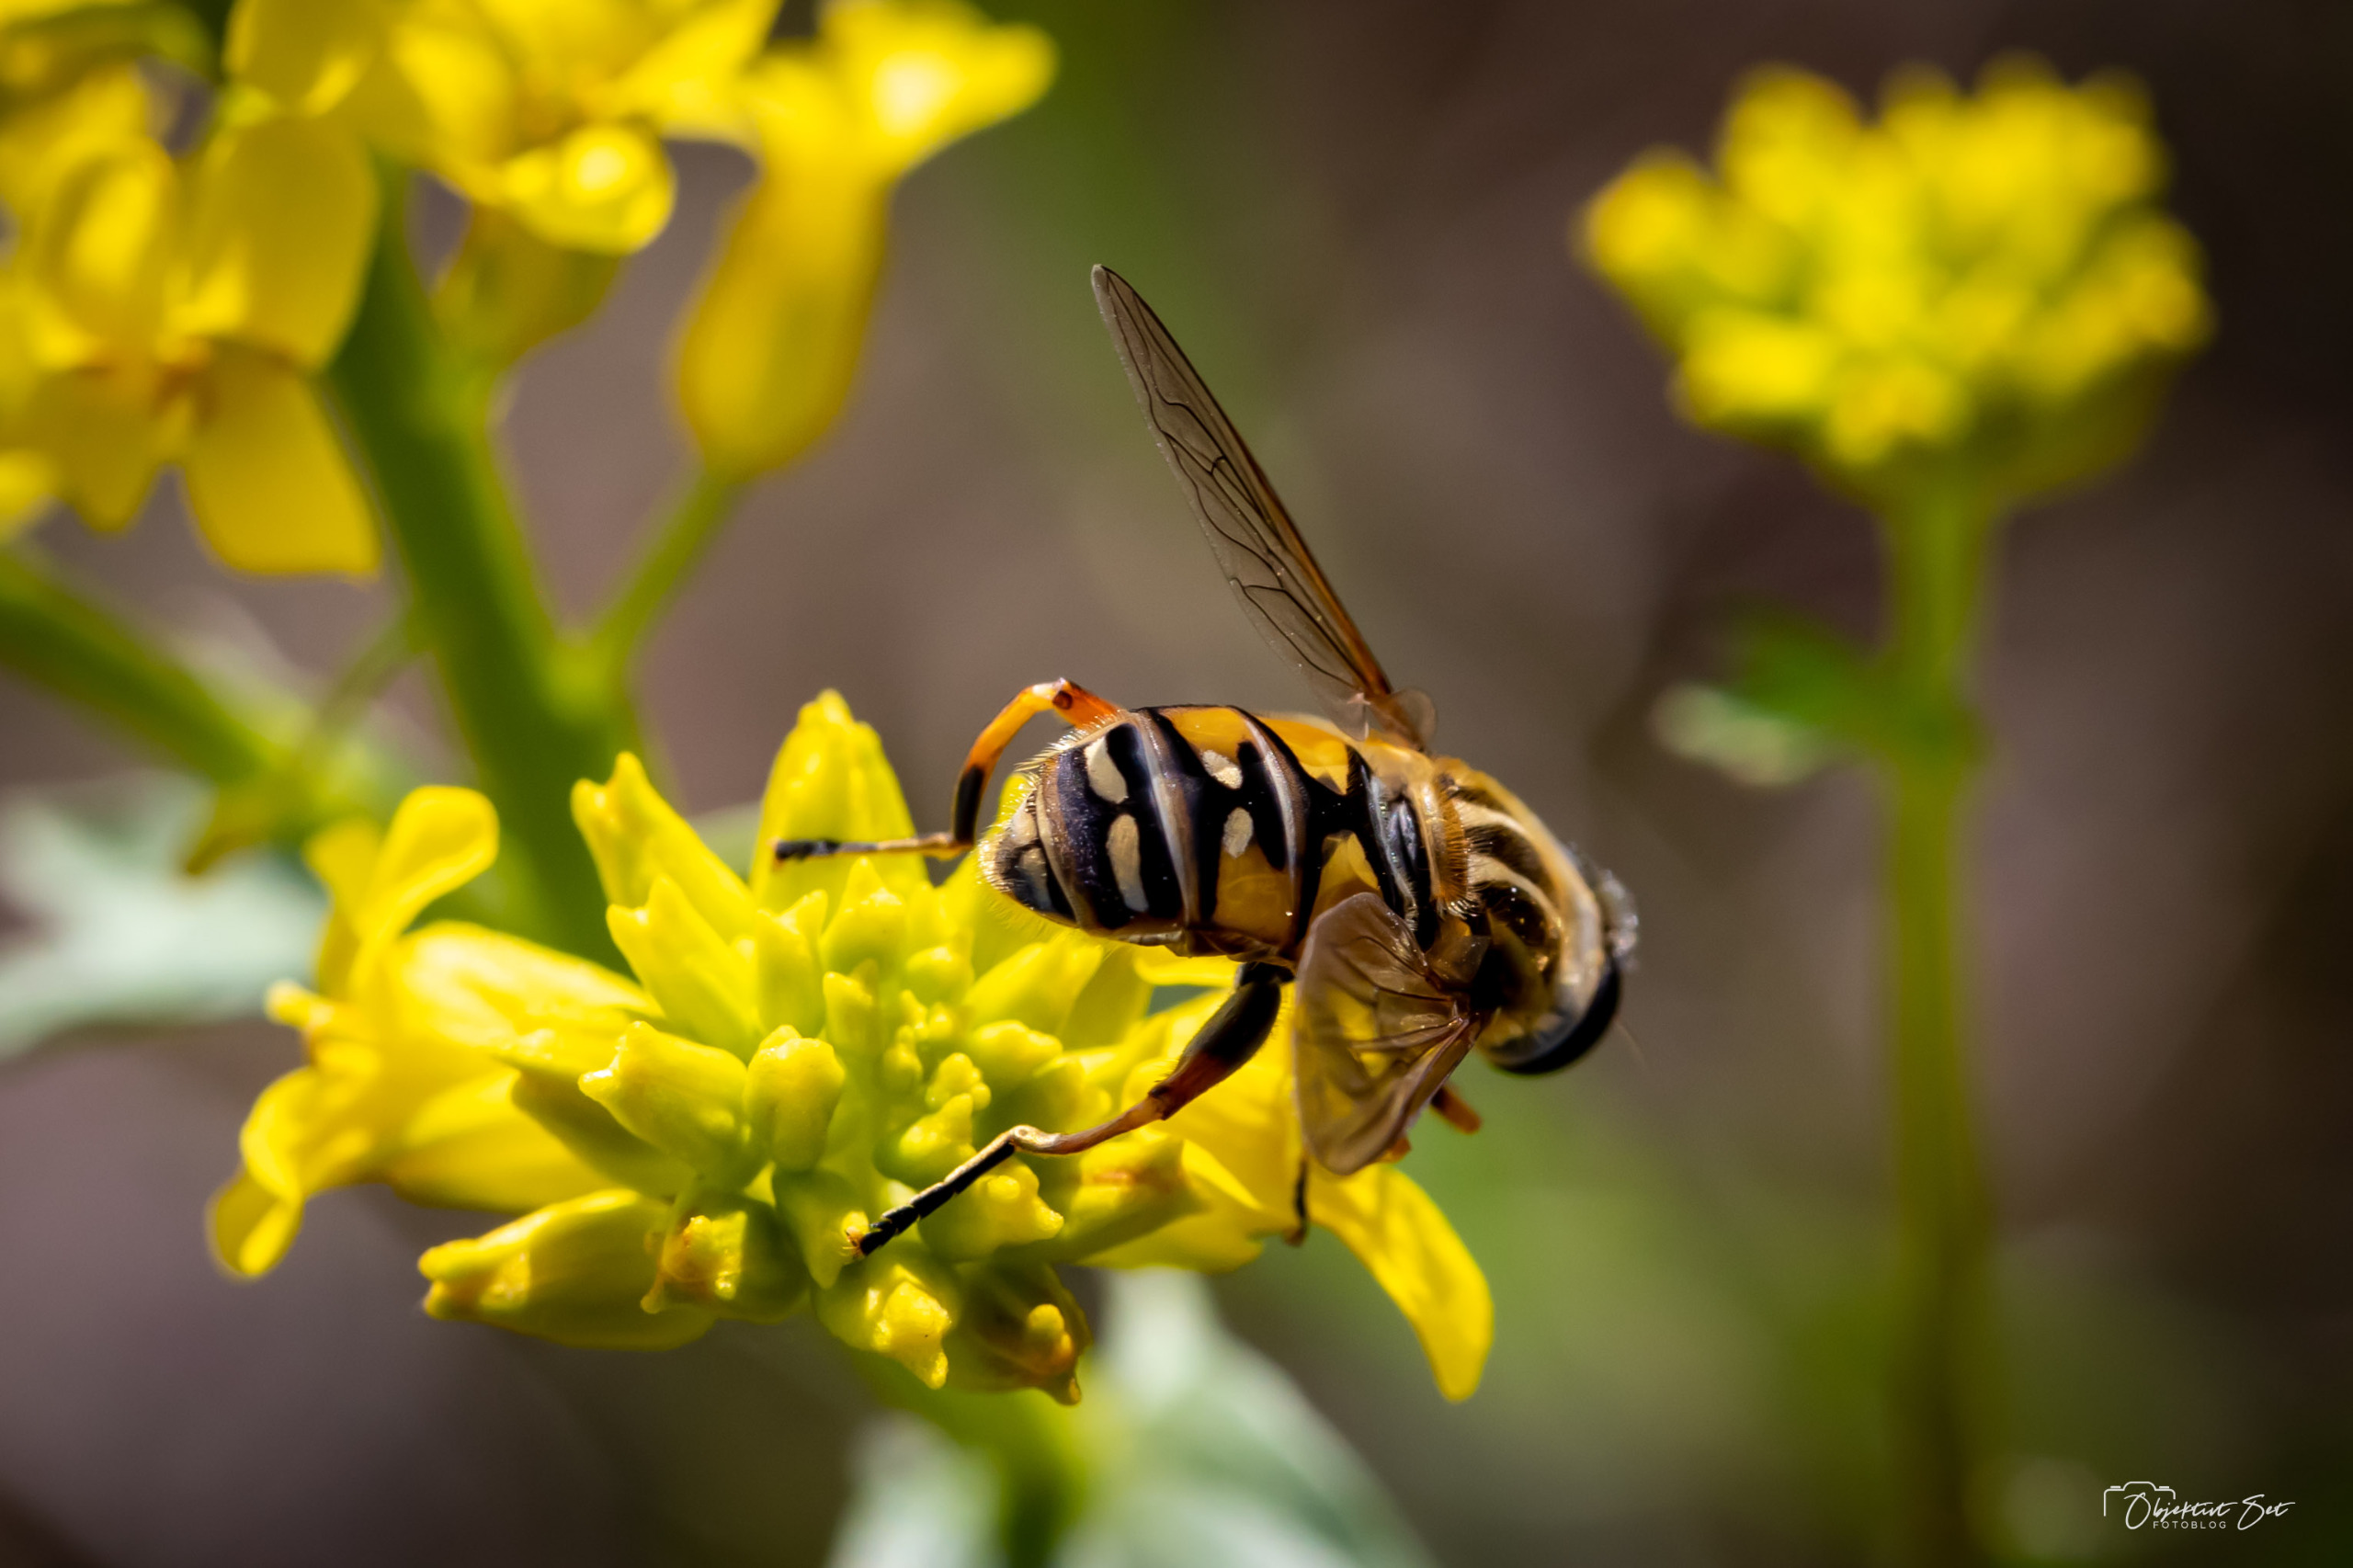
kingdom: Animalia
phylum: Arthropoda
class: Insecta
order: Diptera
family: Syrphidae
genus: Helophilus
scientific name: Helophilus pendulus
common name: Almindelig sumpsvirreflue
